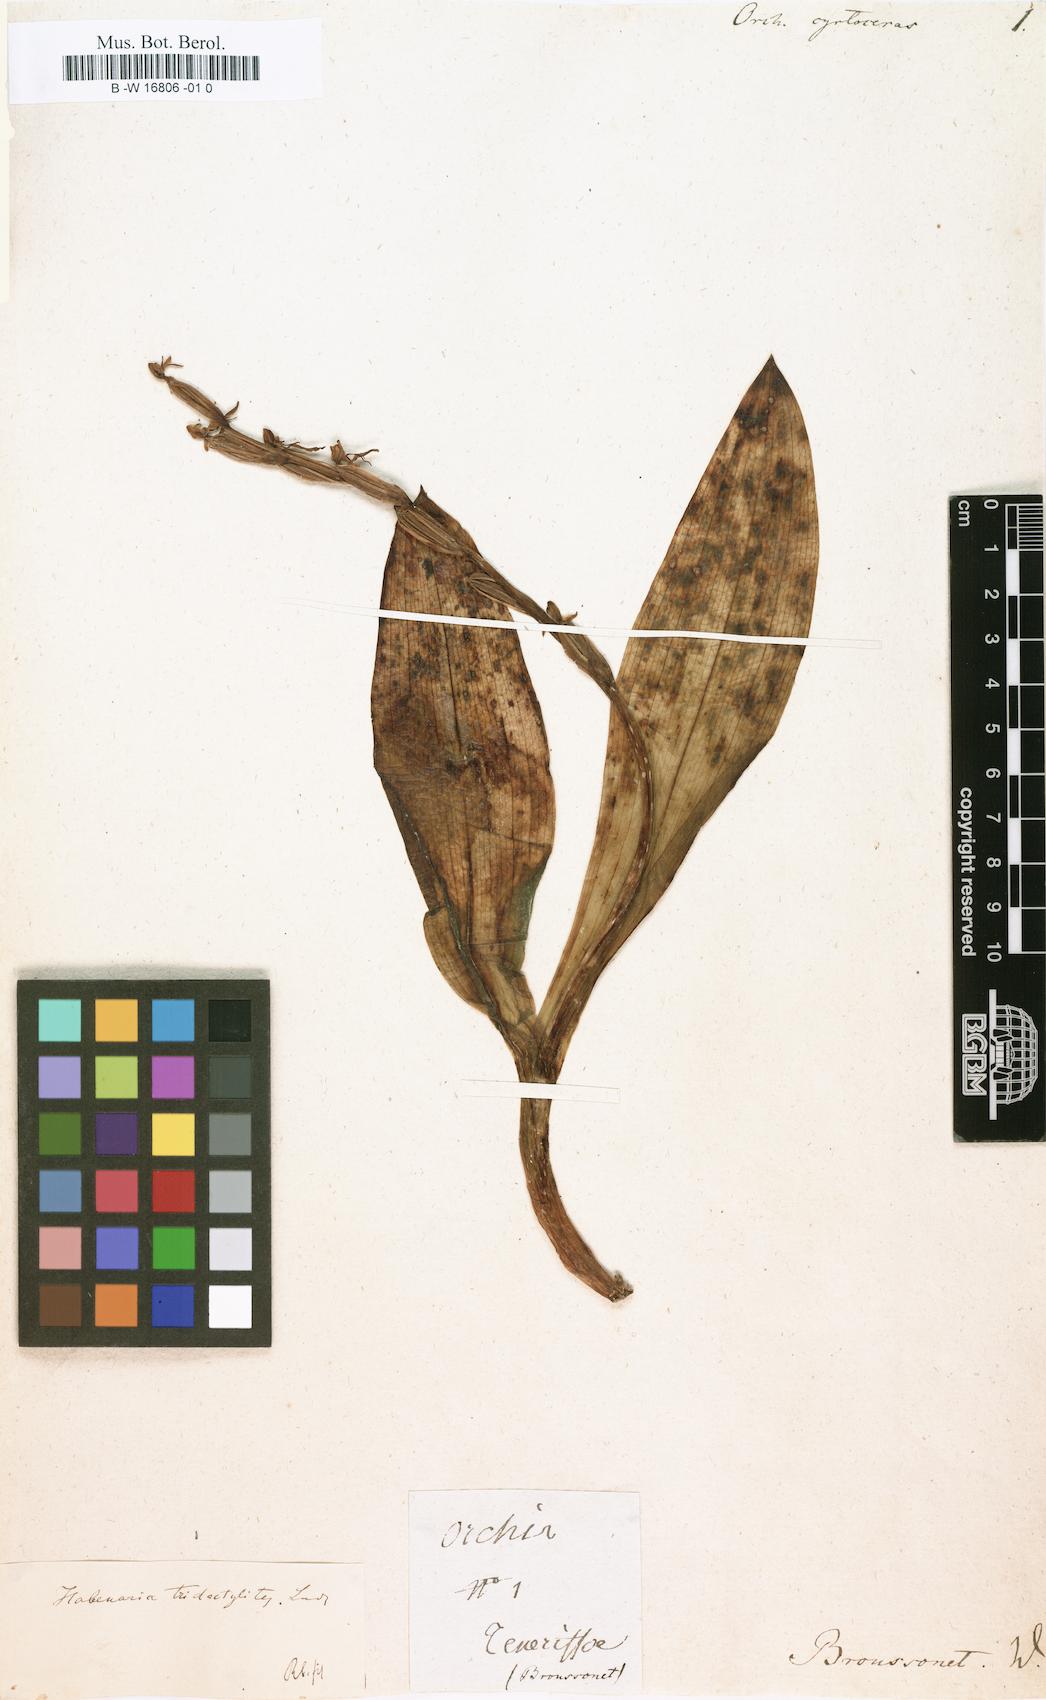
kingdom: Plantae
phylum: Tracheophyta
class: Liliopsida
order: Asparagales
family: Orchidaceae
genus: Orchis
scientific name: Orchis
